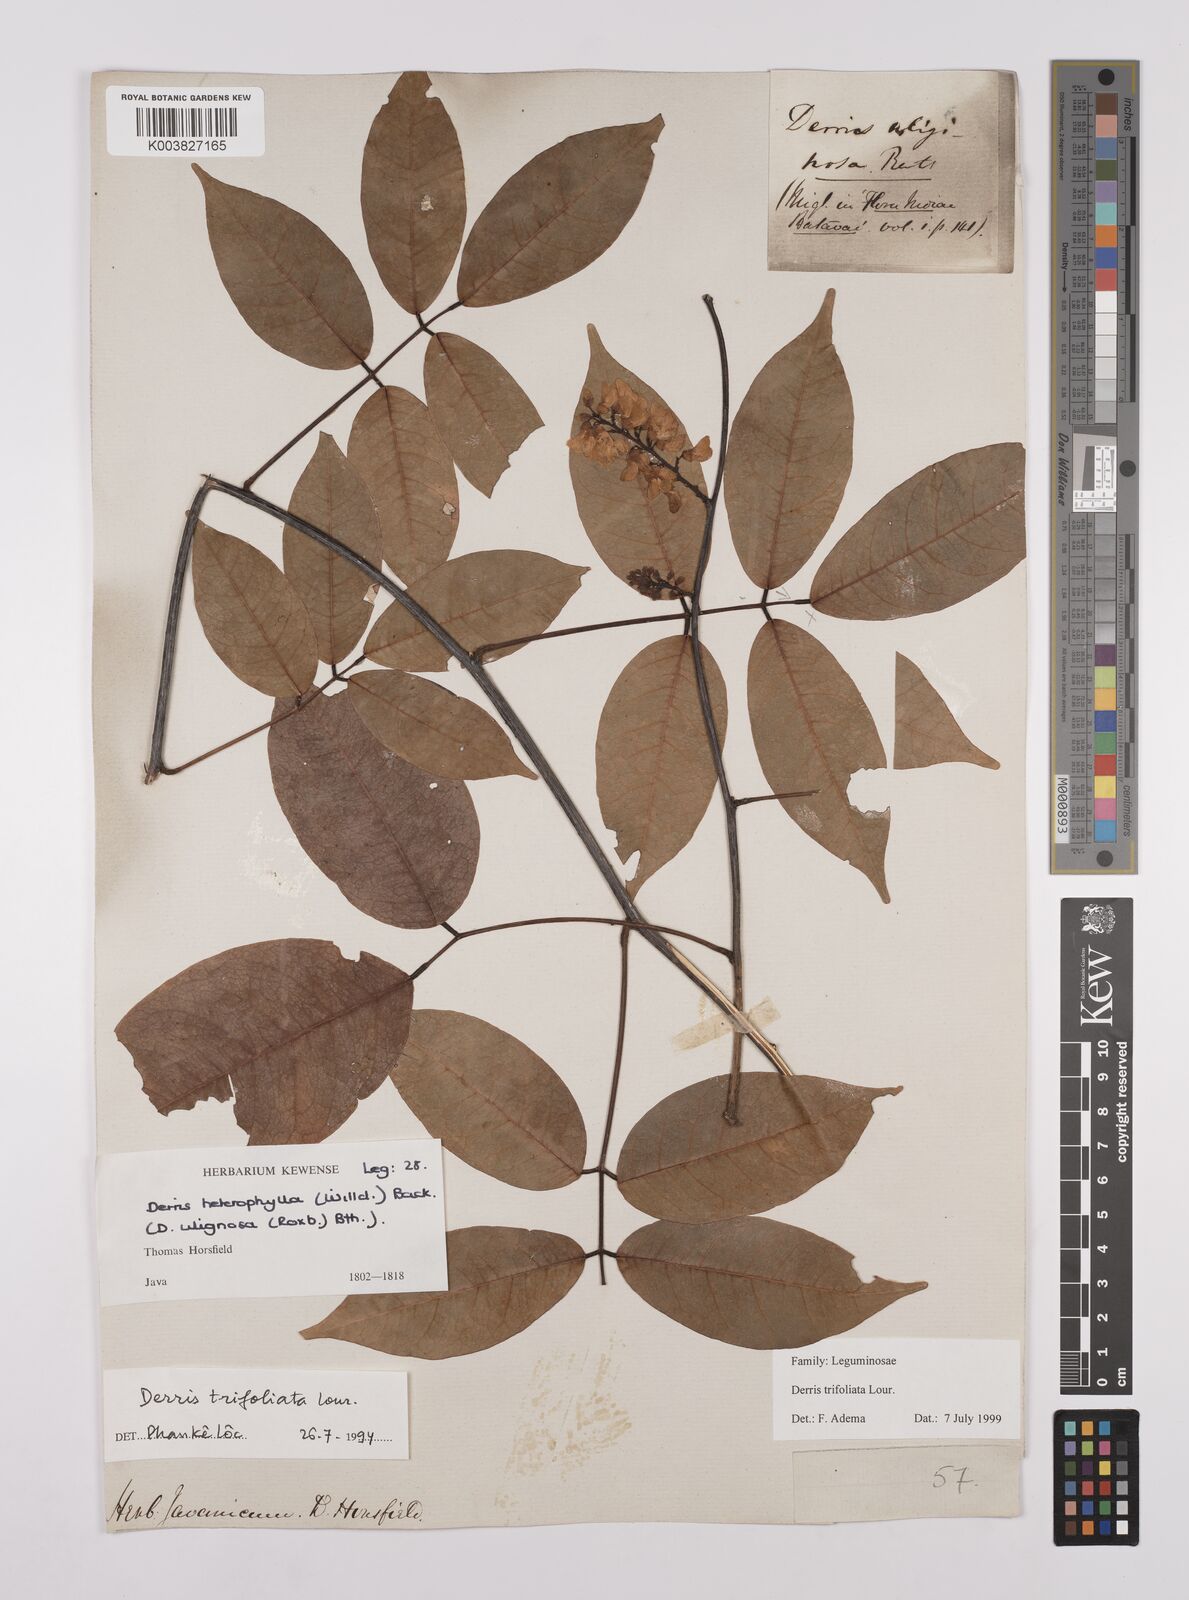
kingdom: Plantae
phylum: Tracheophyta
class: Magnoliopsida
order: Fabales
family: Fabaceae
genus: Derris
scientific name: Derris trifoliata
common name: Three-leaf derris
